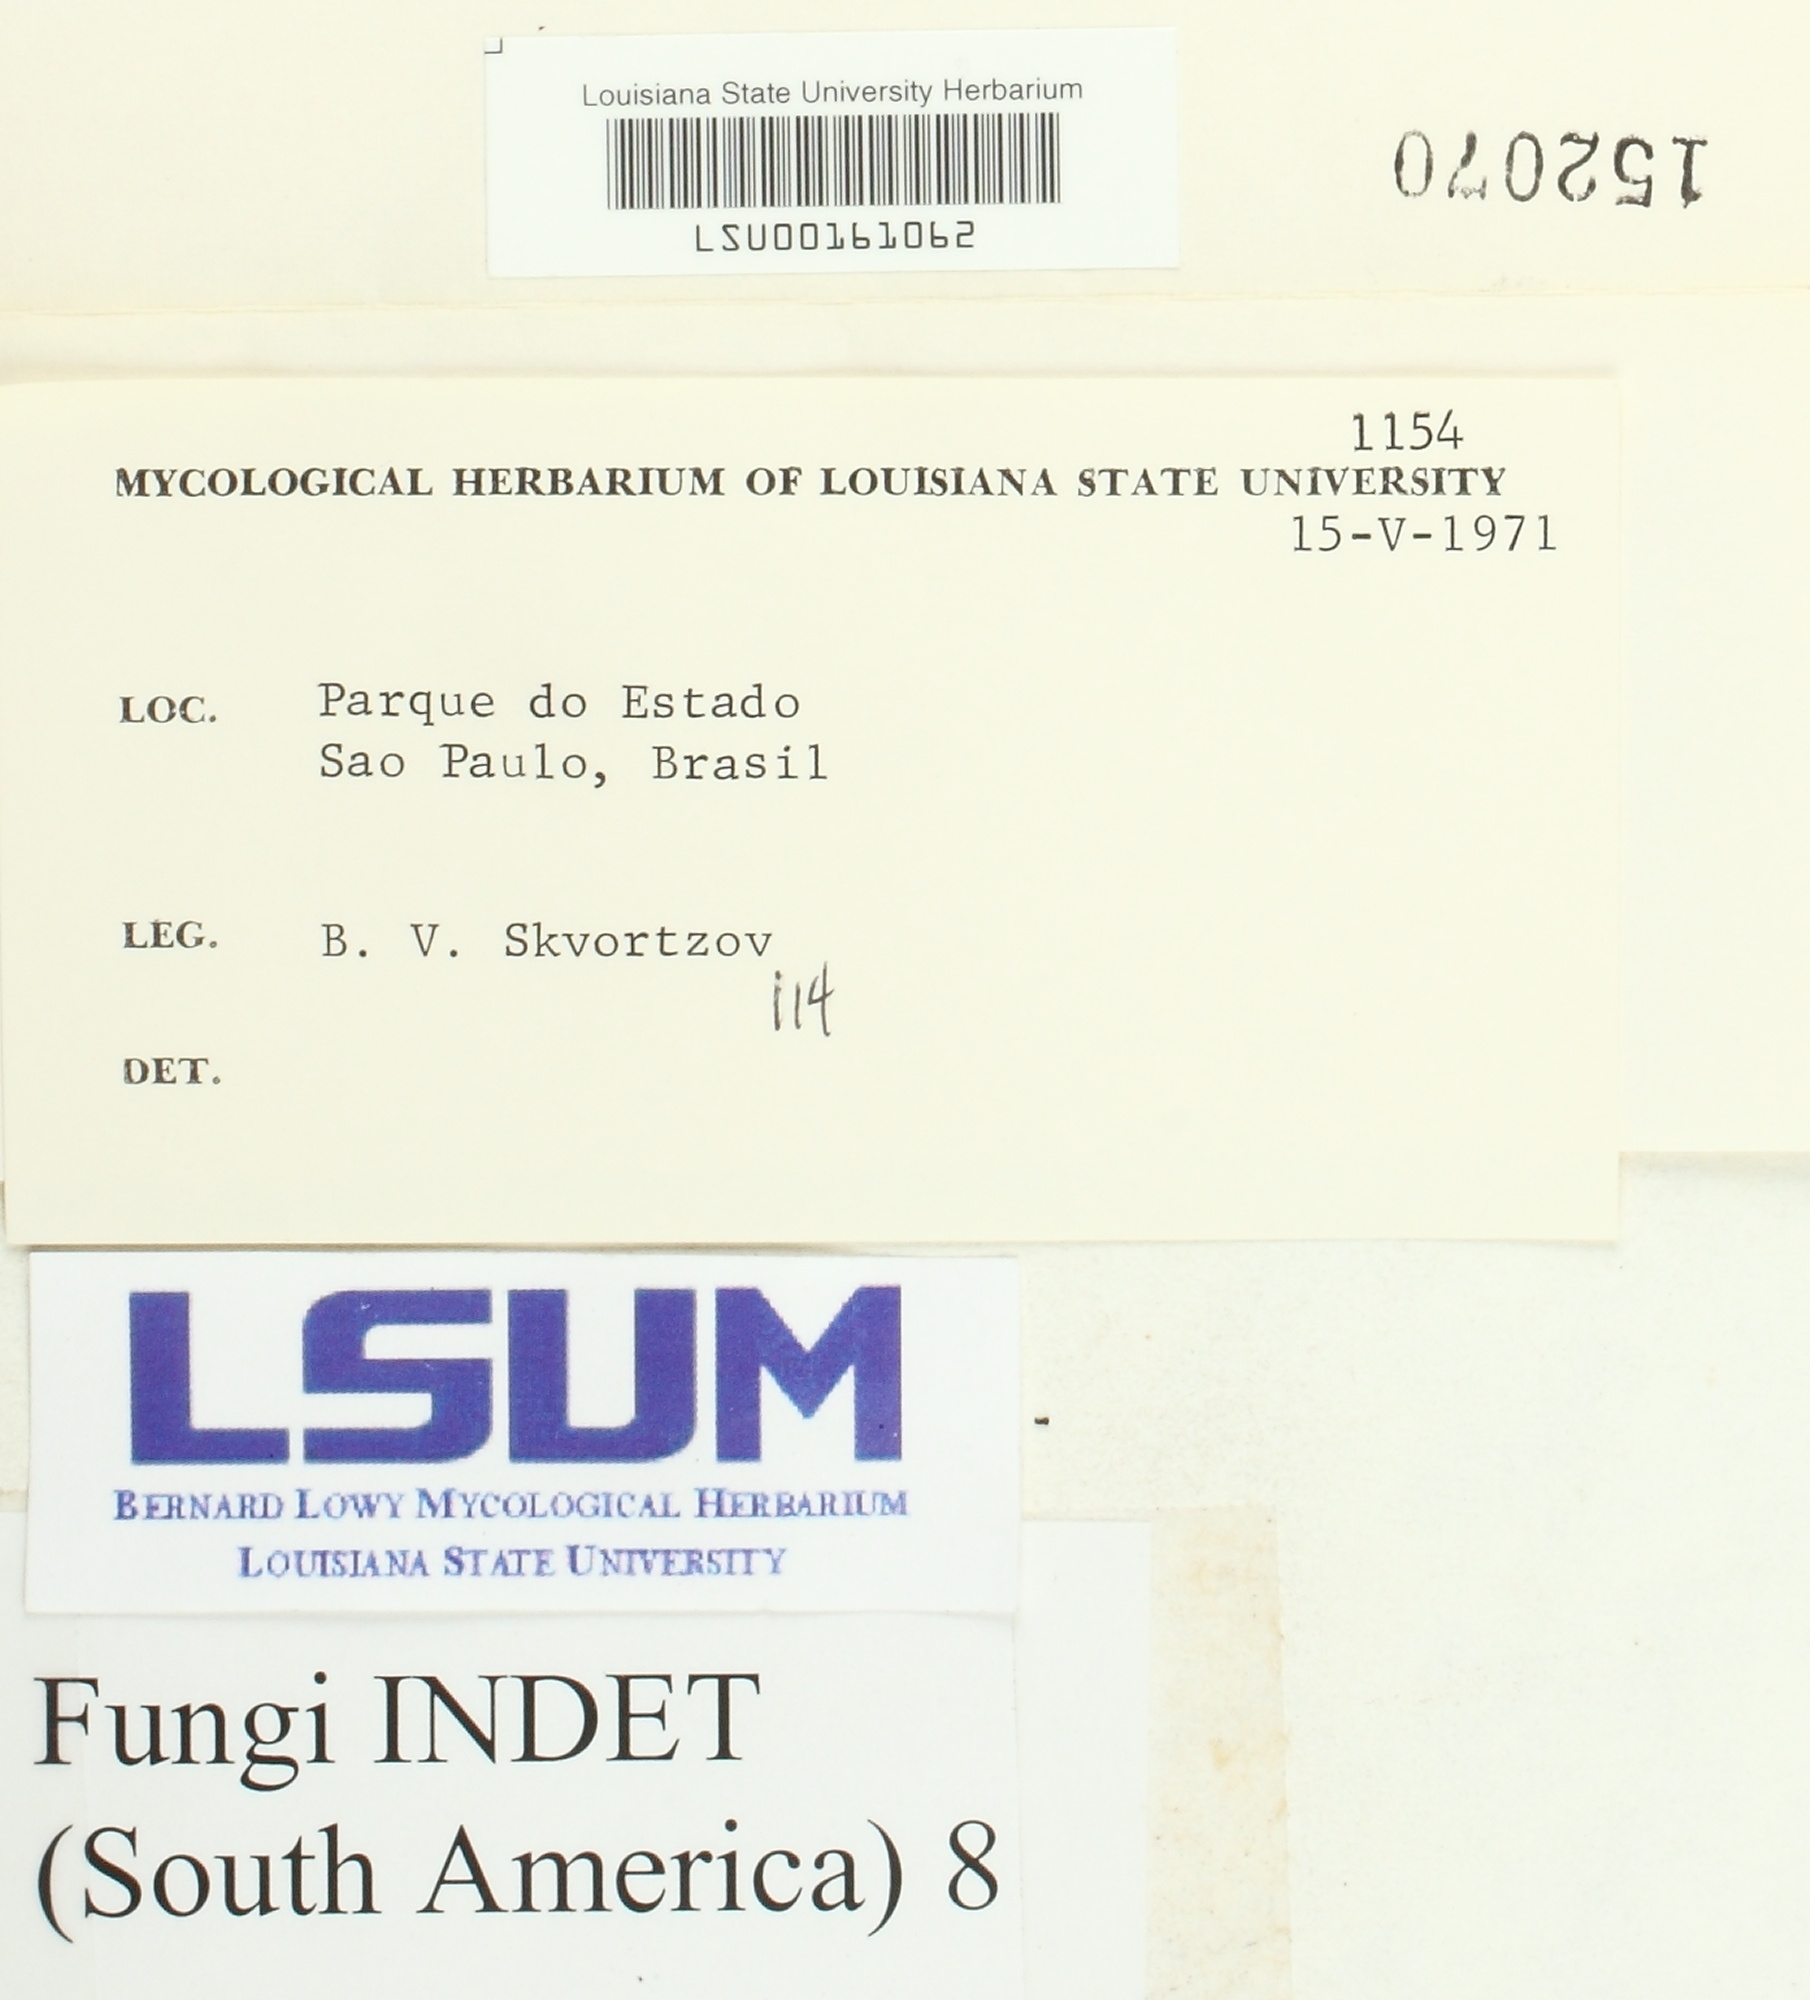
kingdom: Fungi
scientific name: Fungi
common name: Fungi
